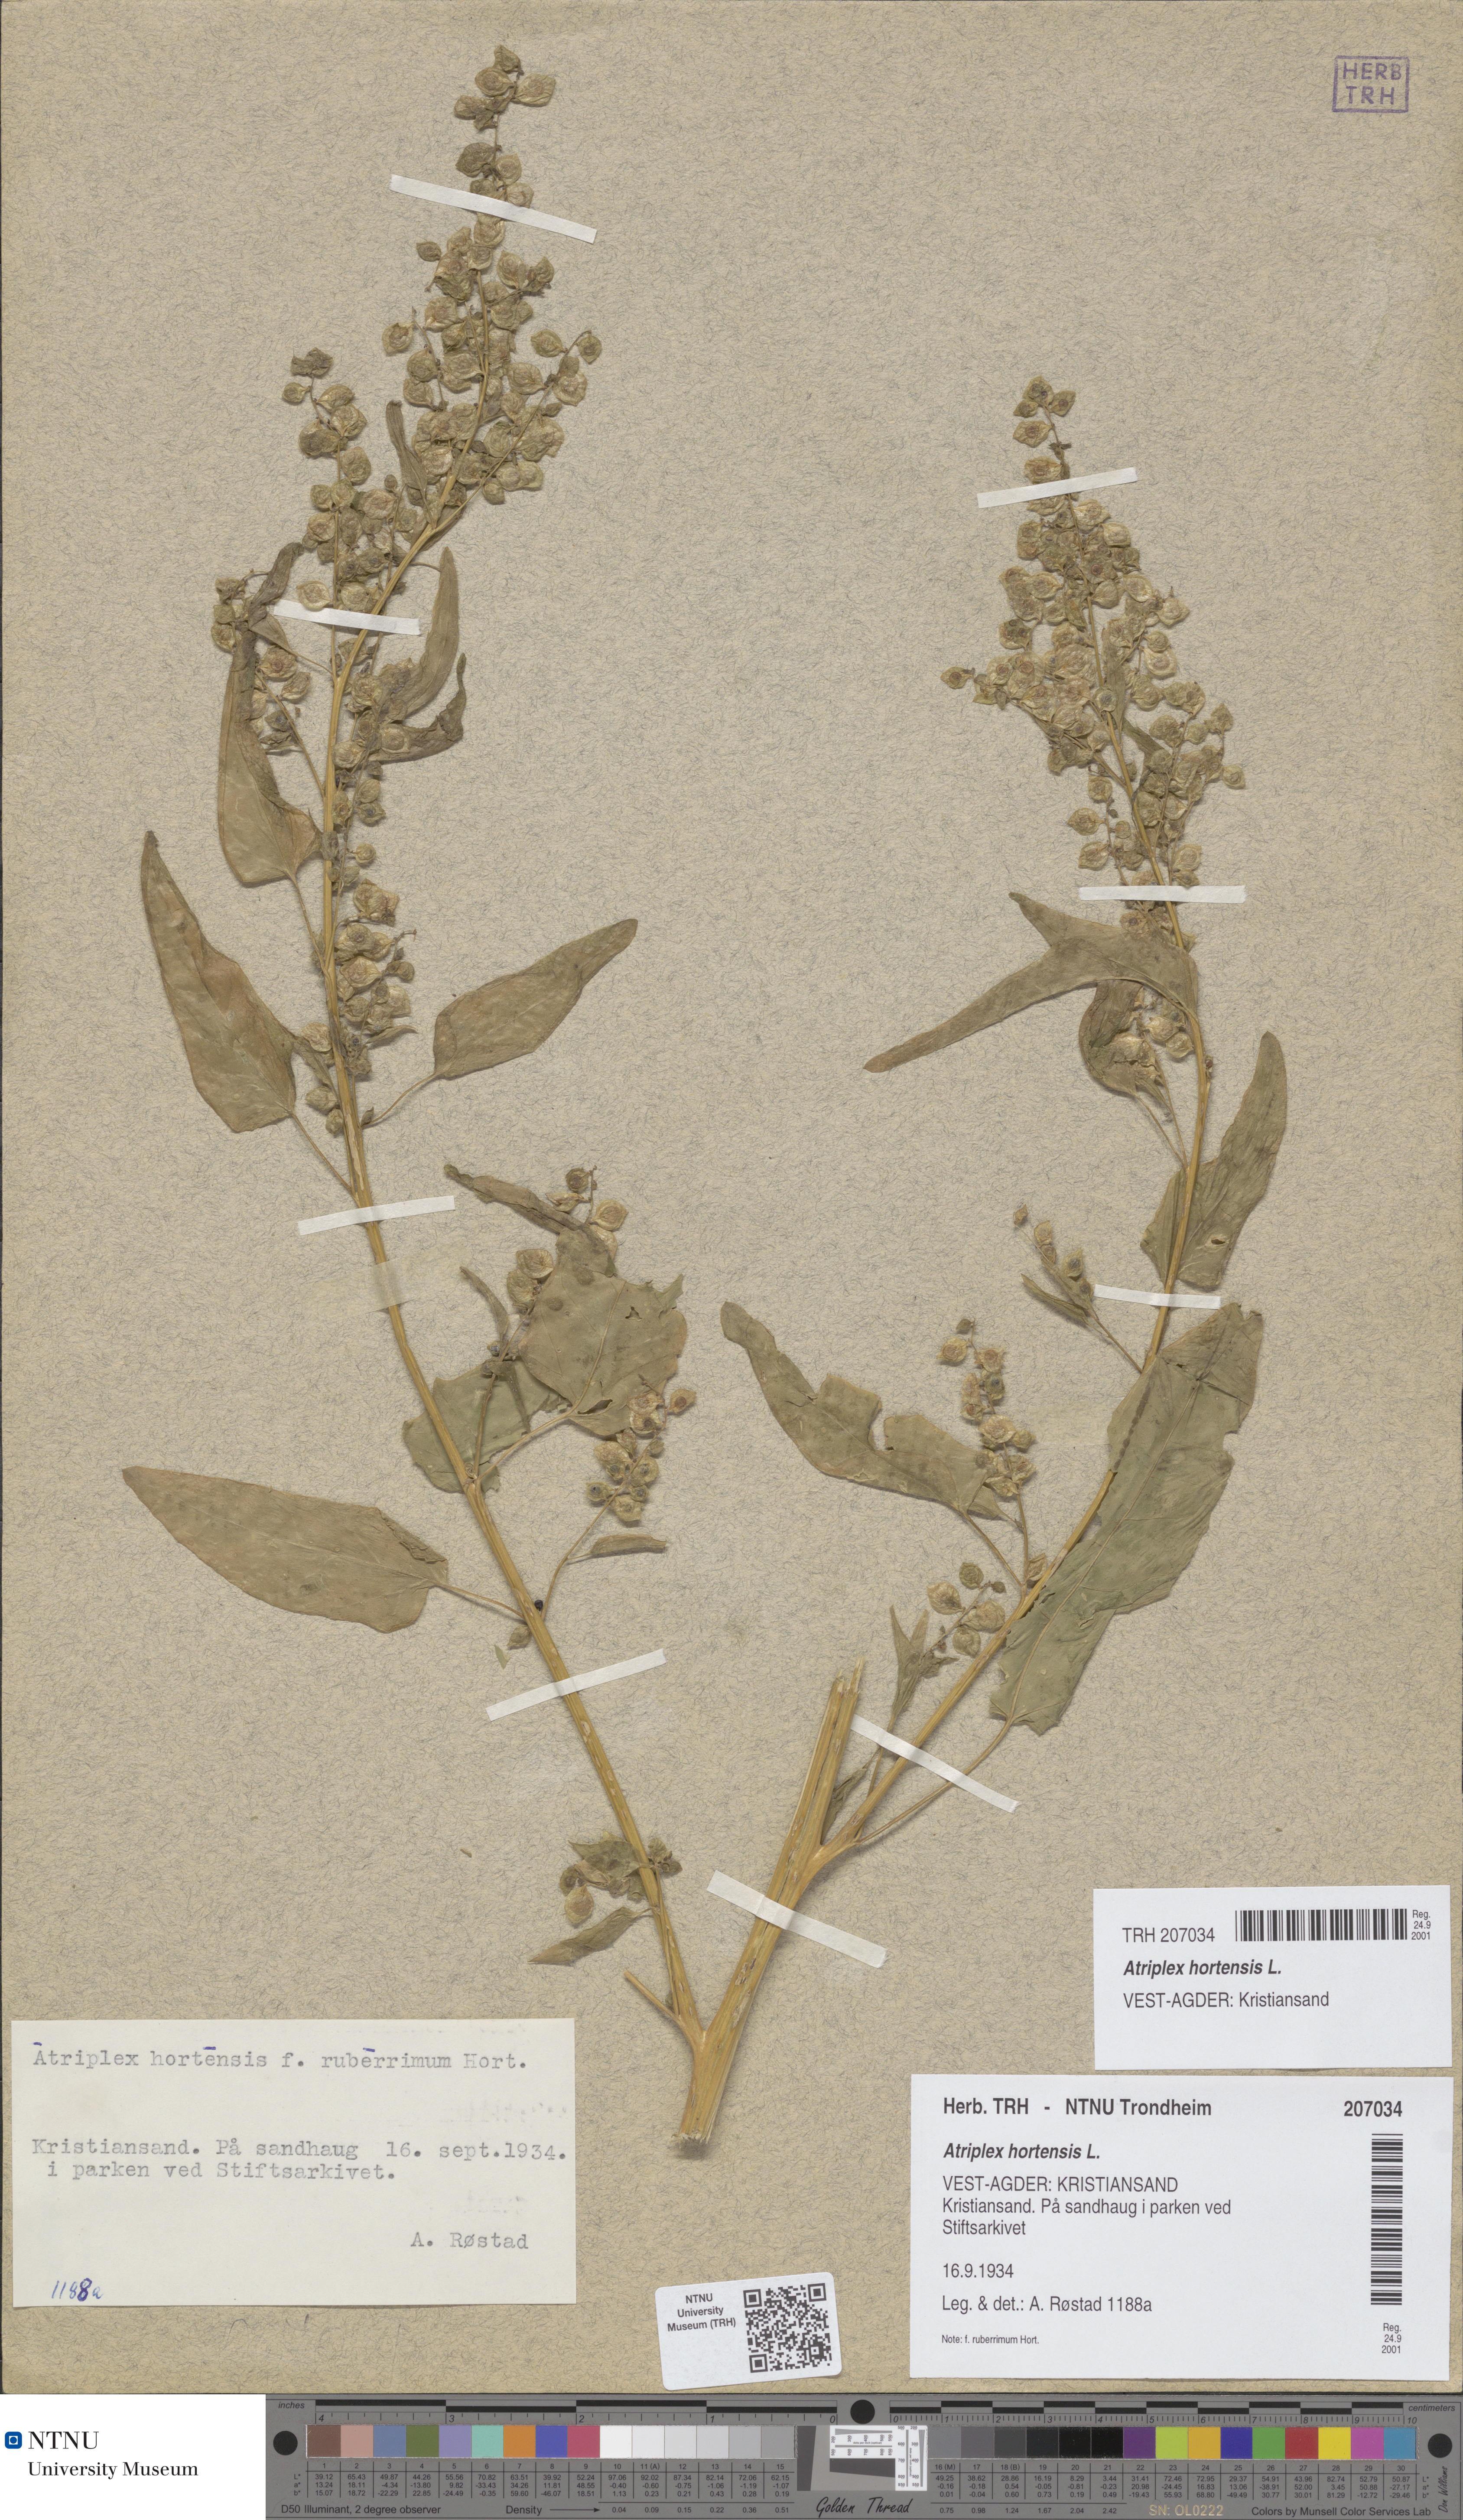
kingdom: Plantae
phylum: Tracheophyta
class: Magnoliopsida
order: Caryophyllales
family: Amaranthaceae
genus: Atriplex
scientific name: Atriplex hortensis
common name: Garden orache
